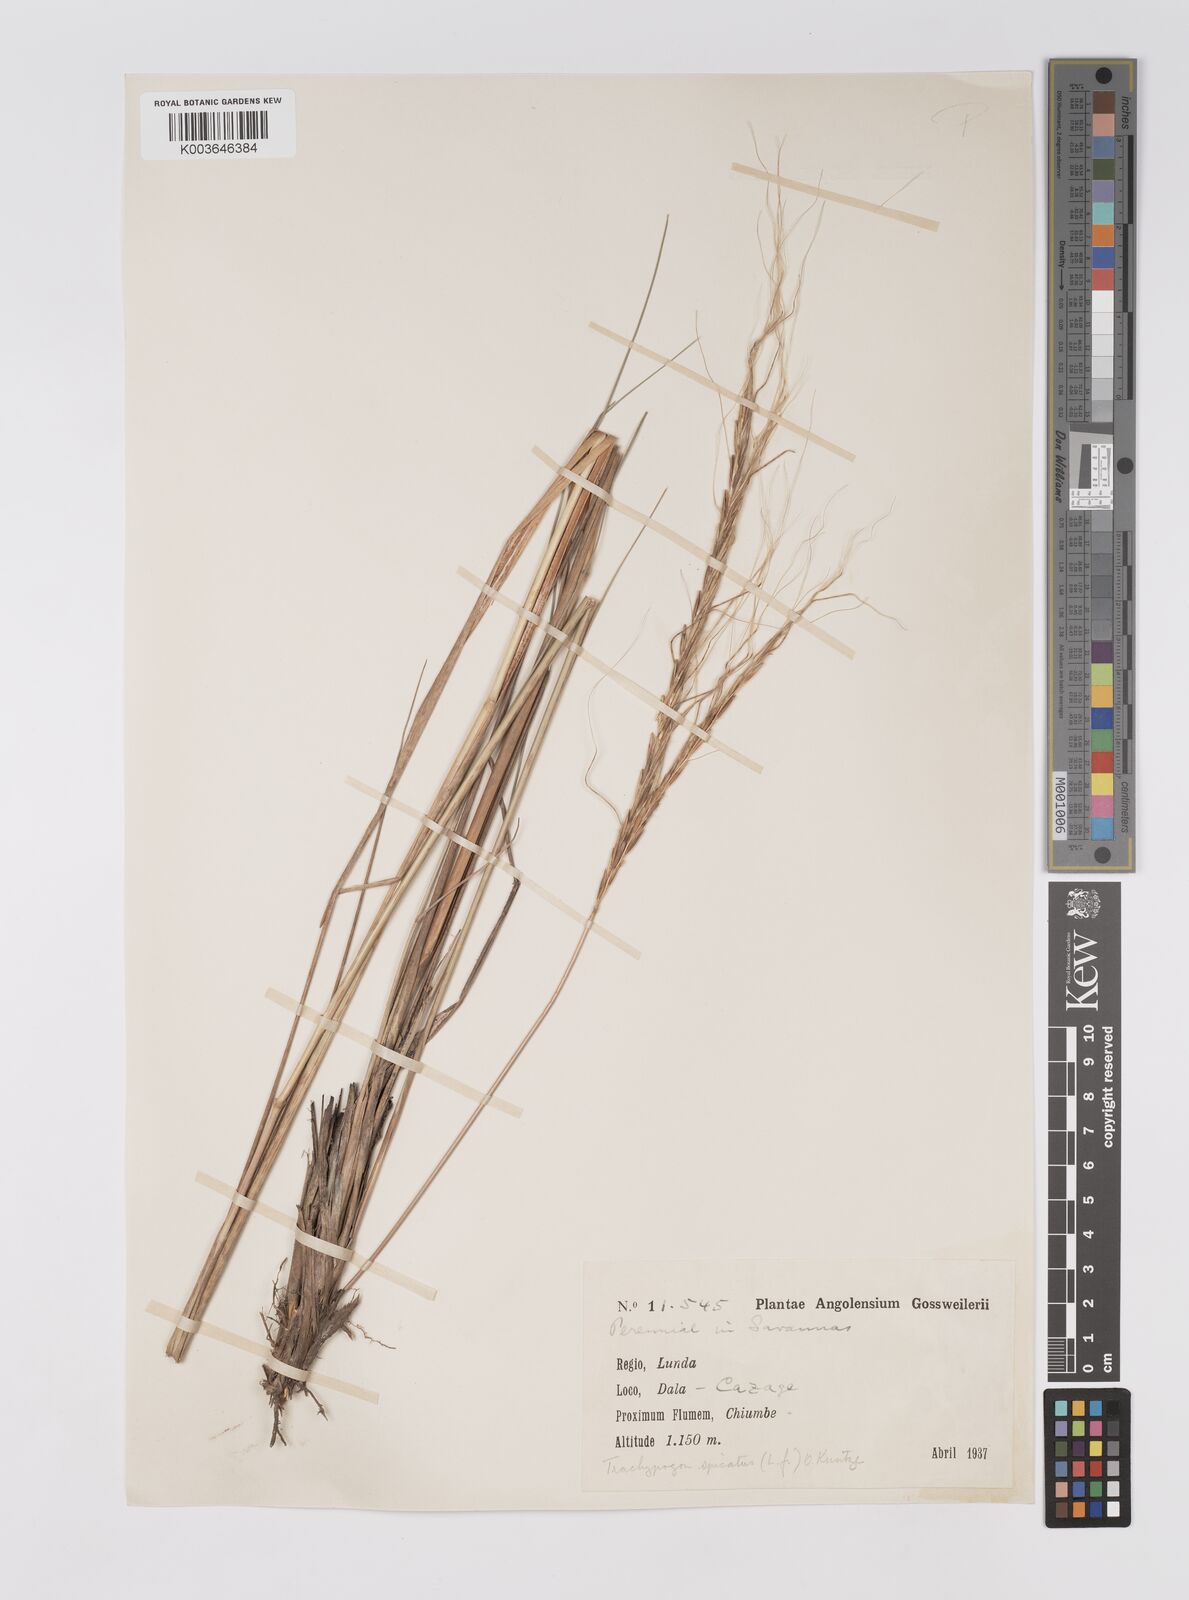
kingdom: Plantae
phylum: Tracheophyta
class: Liliopsida
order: Poales
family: Poaceae
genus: Trachypogon
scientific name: Trachypogon spicatus
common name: Crinkle-awn
